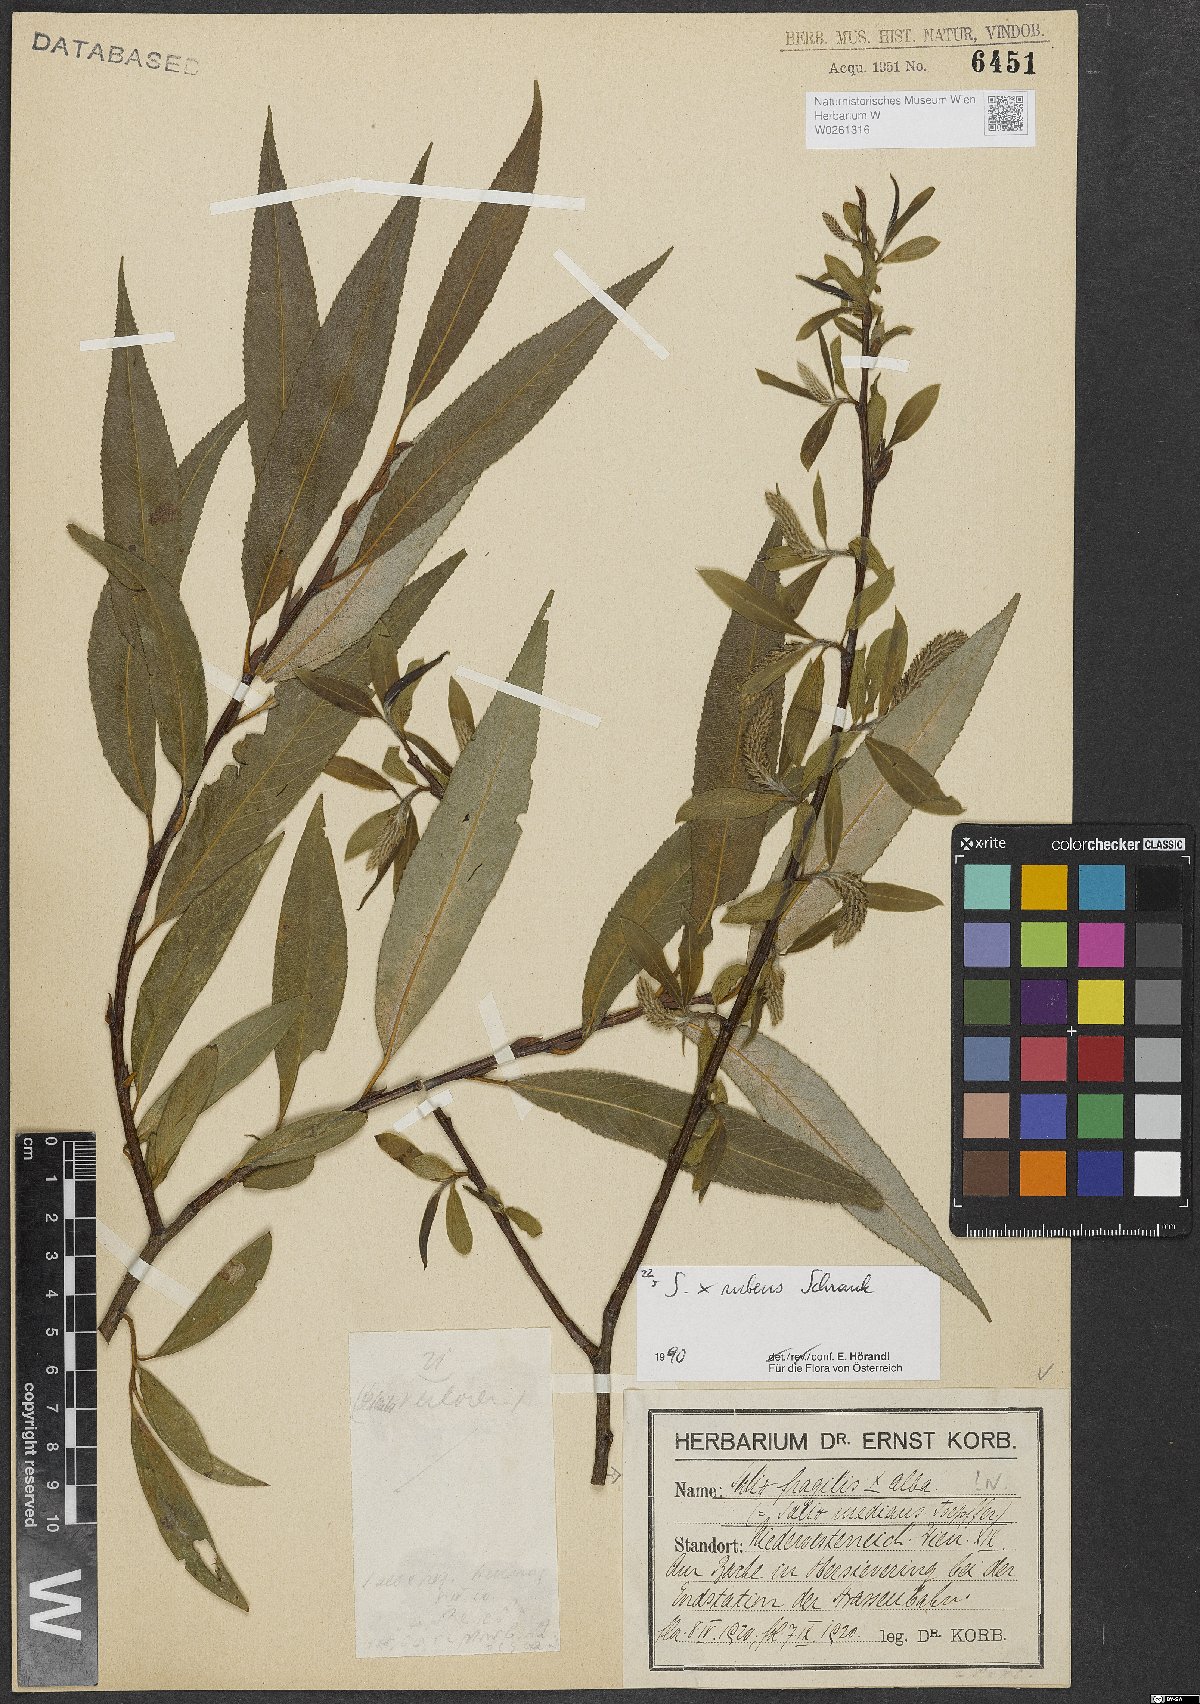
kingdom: Plantae
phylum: Tracheophyta
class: Magnoliopsida
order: Malpighiales
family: Salicaceae
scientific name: Salicaceae
